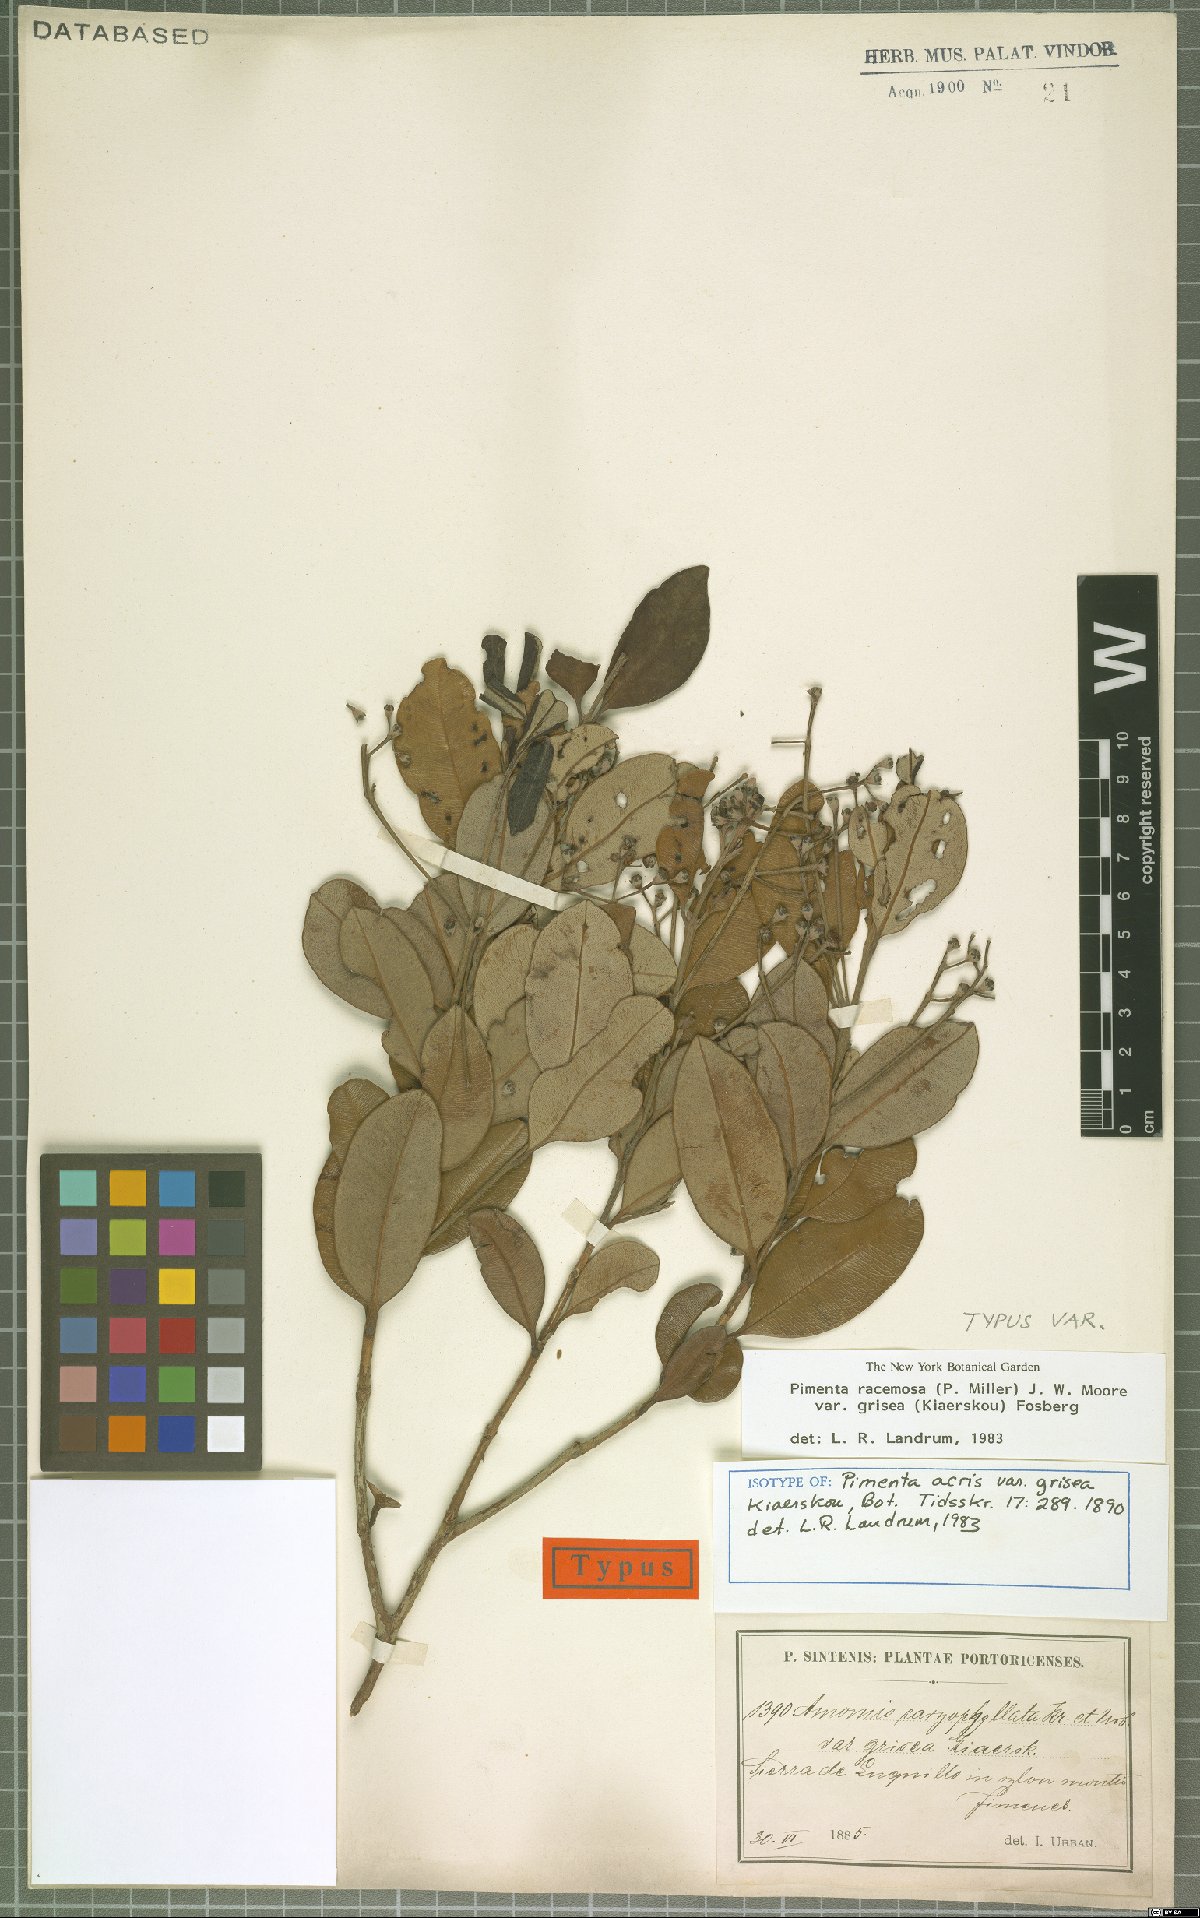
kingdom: Plantae
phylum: Tracheophyta
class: Magnoliopsida
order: Myrtales
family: Myrtaceae
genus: Pimenta
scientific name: Pimenta racemosa
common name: Bay rum tree
